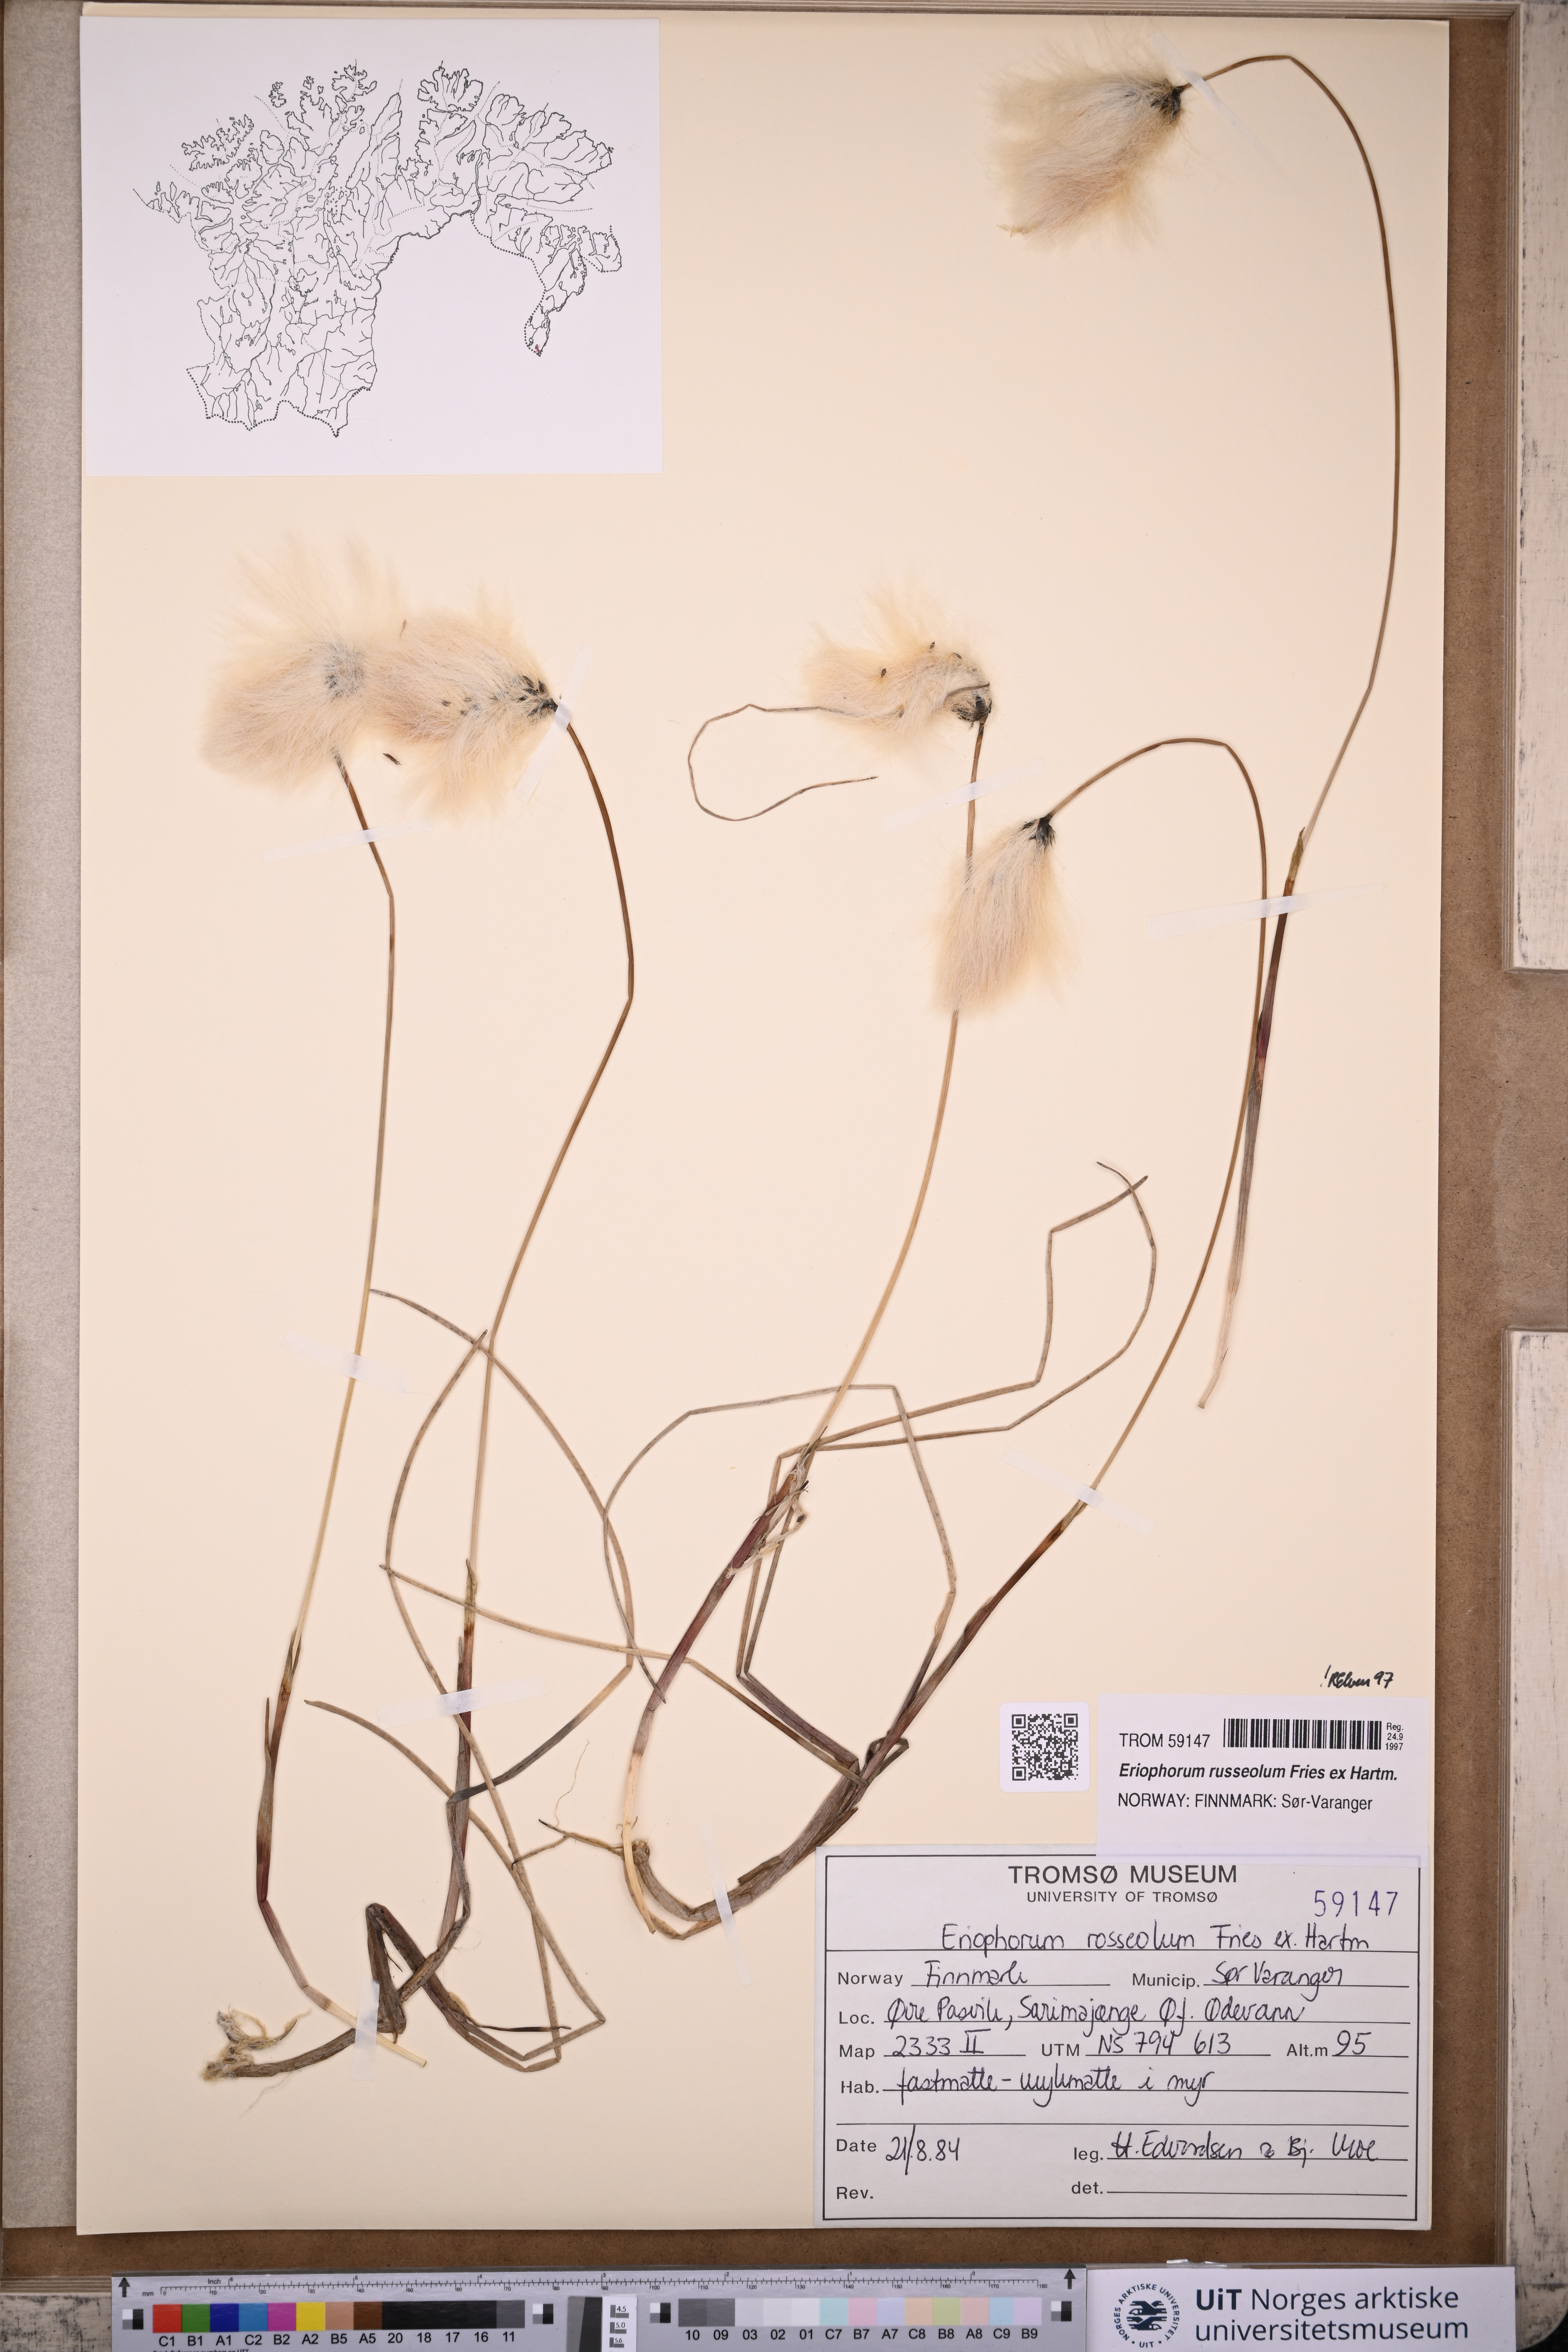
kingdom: Plantae
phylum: Tracheophyta
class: Liliopsida
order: Poales
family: Cyperaceae
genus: Eriophorum
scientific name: Eriophorum russeolum
